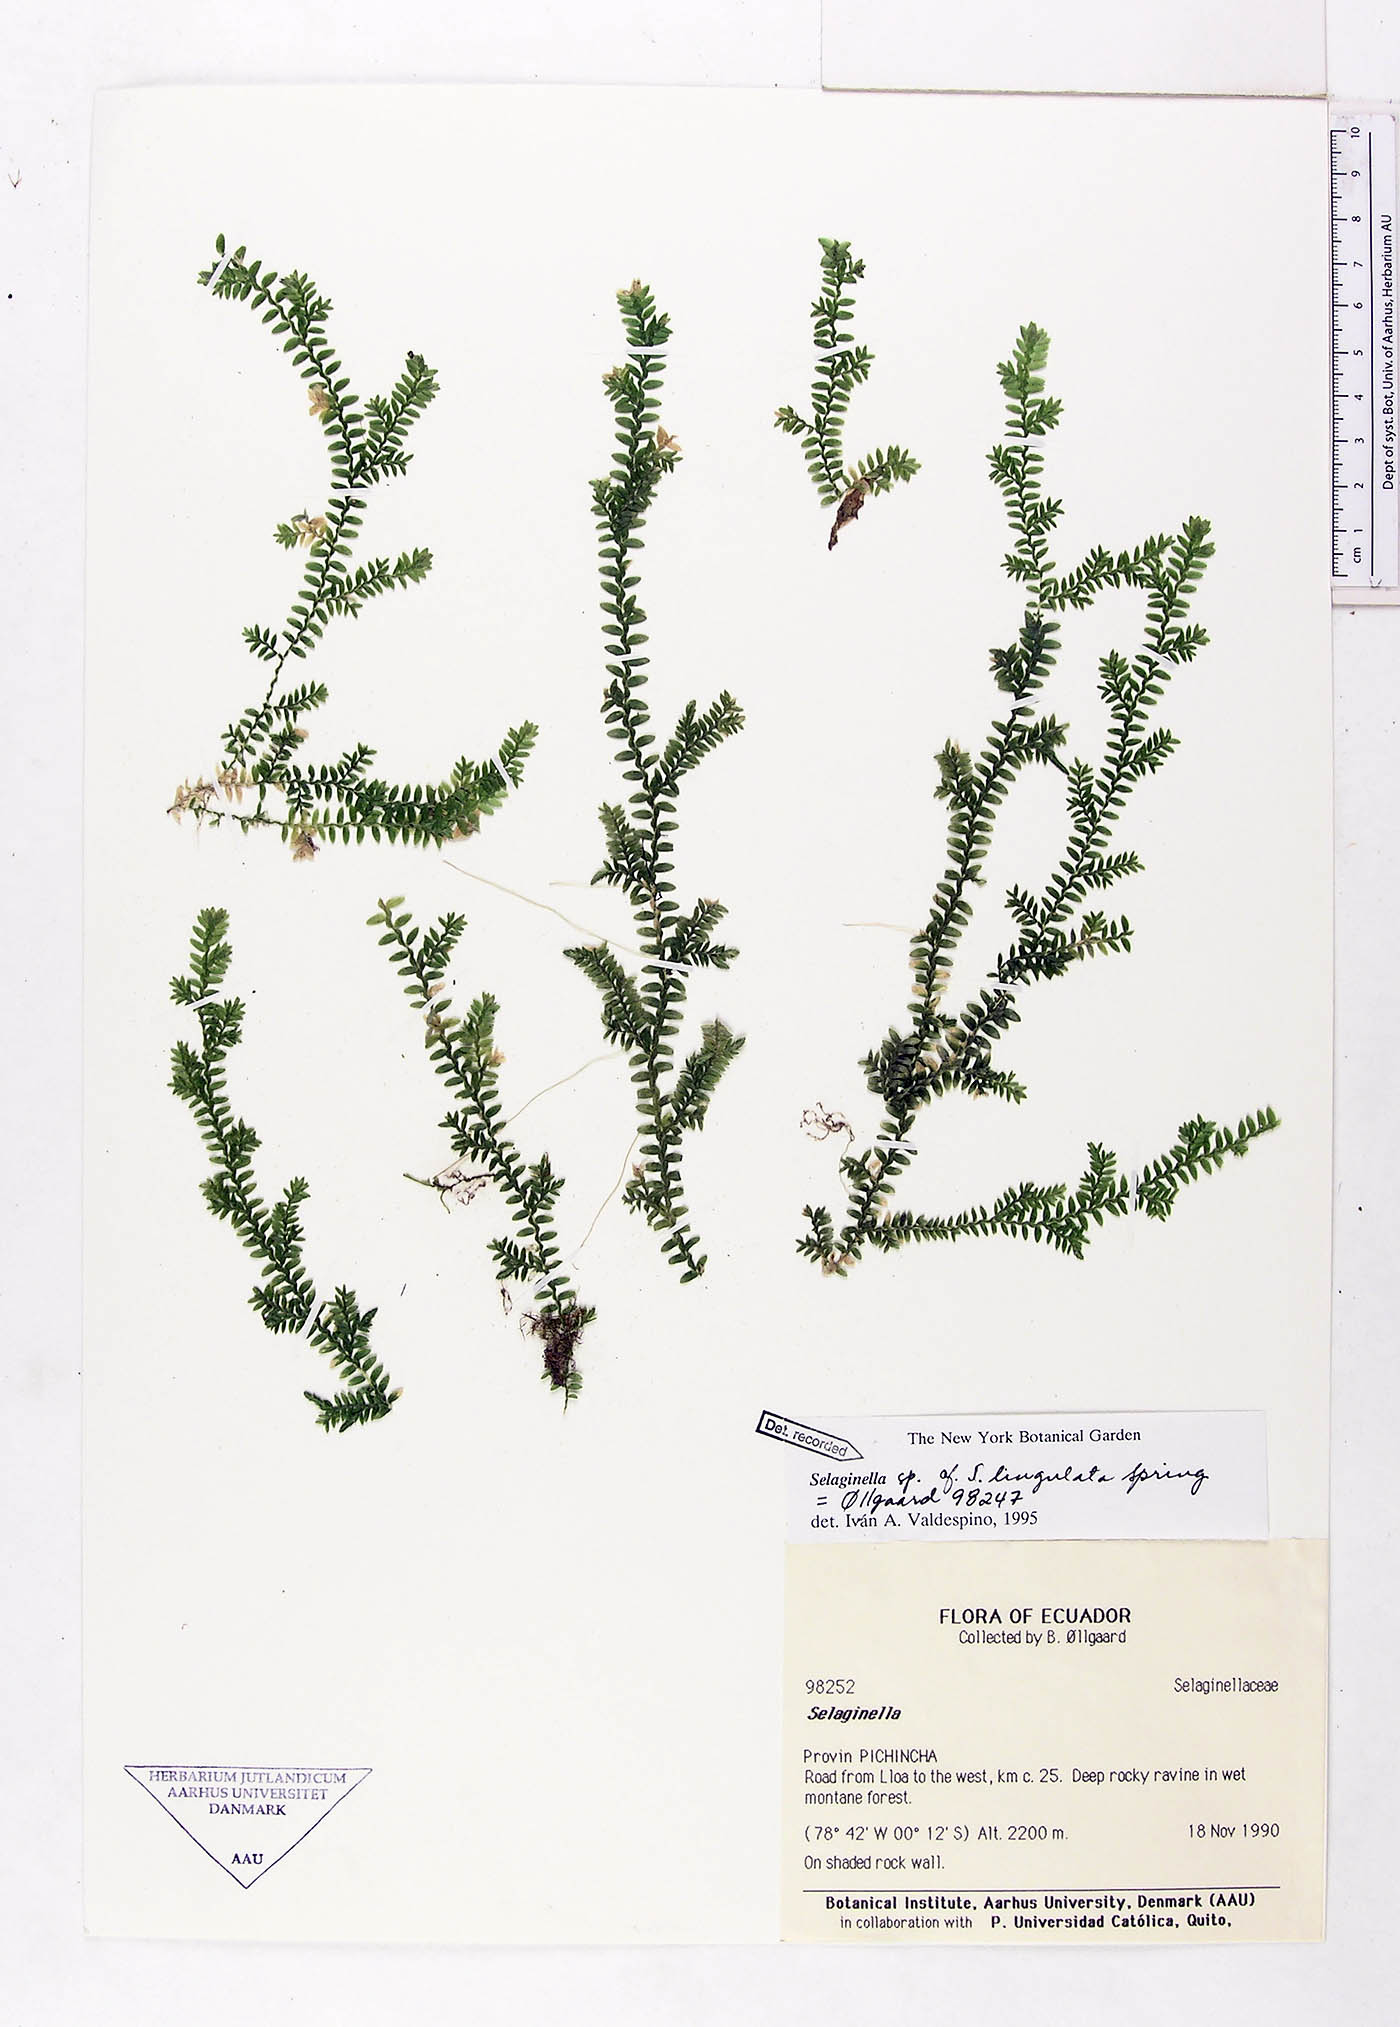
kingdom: Plantae
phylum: Tracheophyta
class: Lycopodiopsida
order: Selaginellales
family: Selaginellaceae
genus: Selaginella
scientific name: Selaginella lingulata
